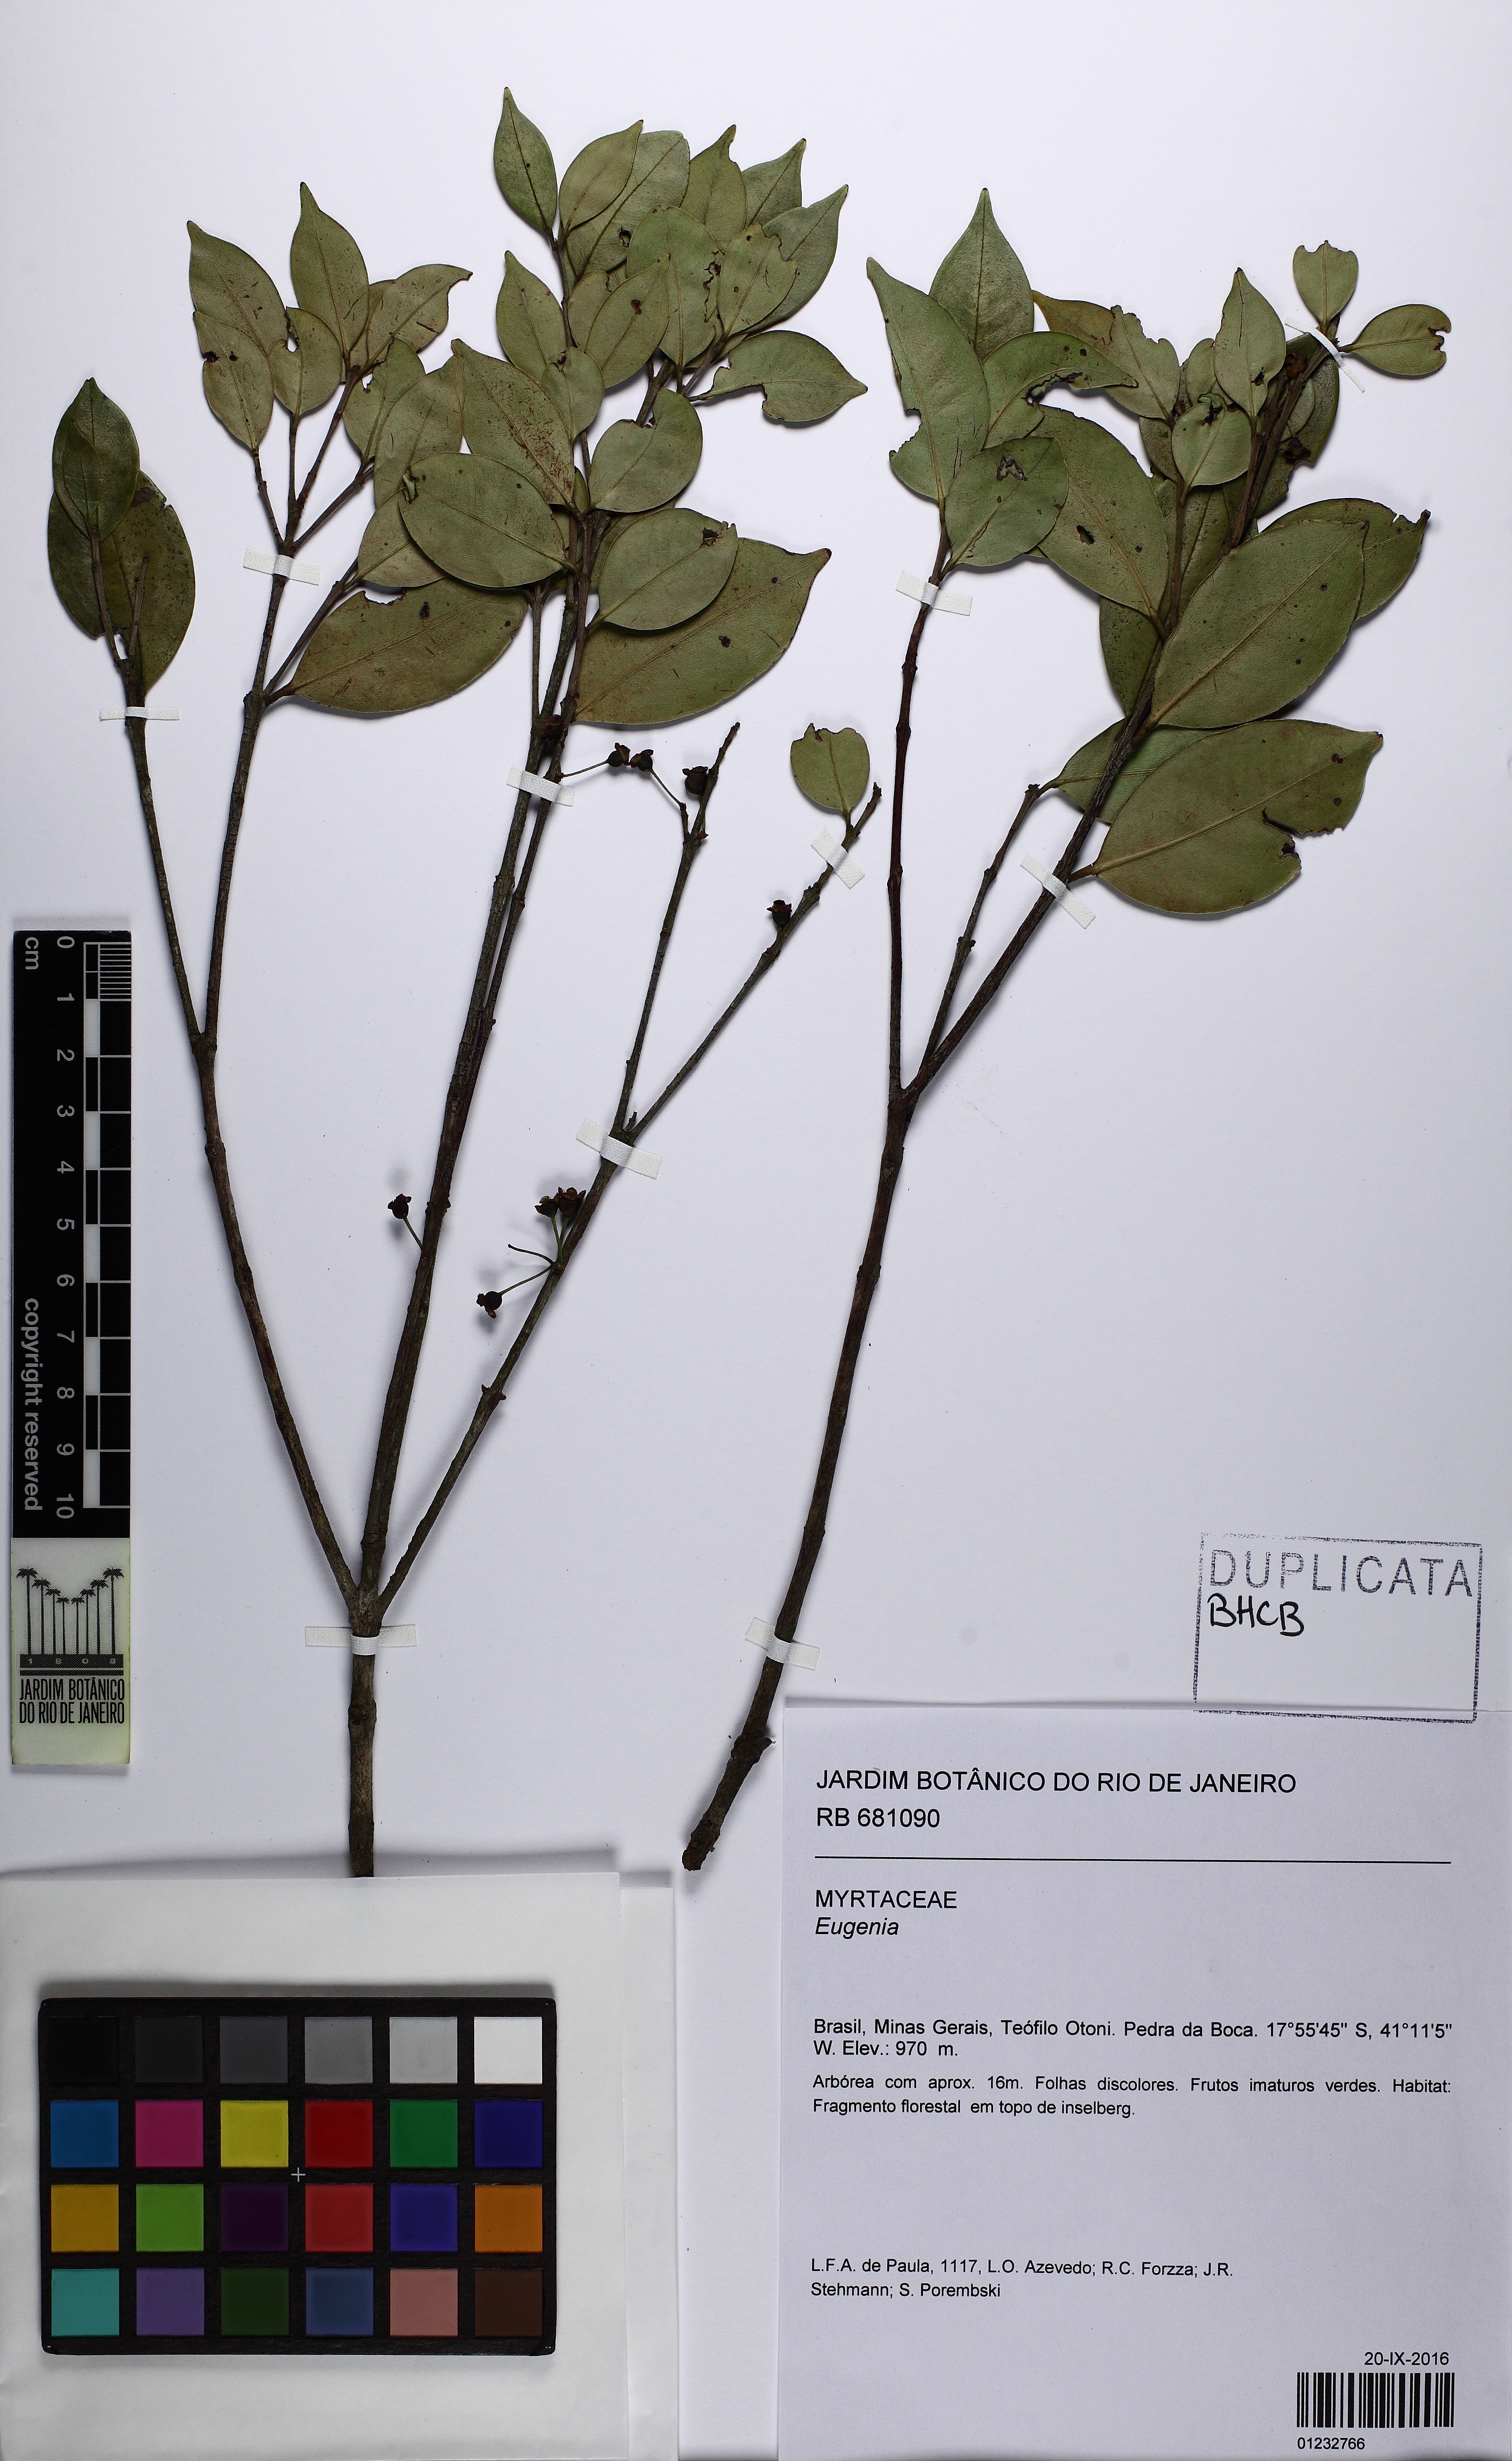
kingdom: Plantae
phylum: Tracheophyta
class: Magnoliopsida
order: Myrtales
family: Myrtaceae
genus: Eugenia
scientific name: Eugenia
